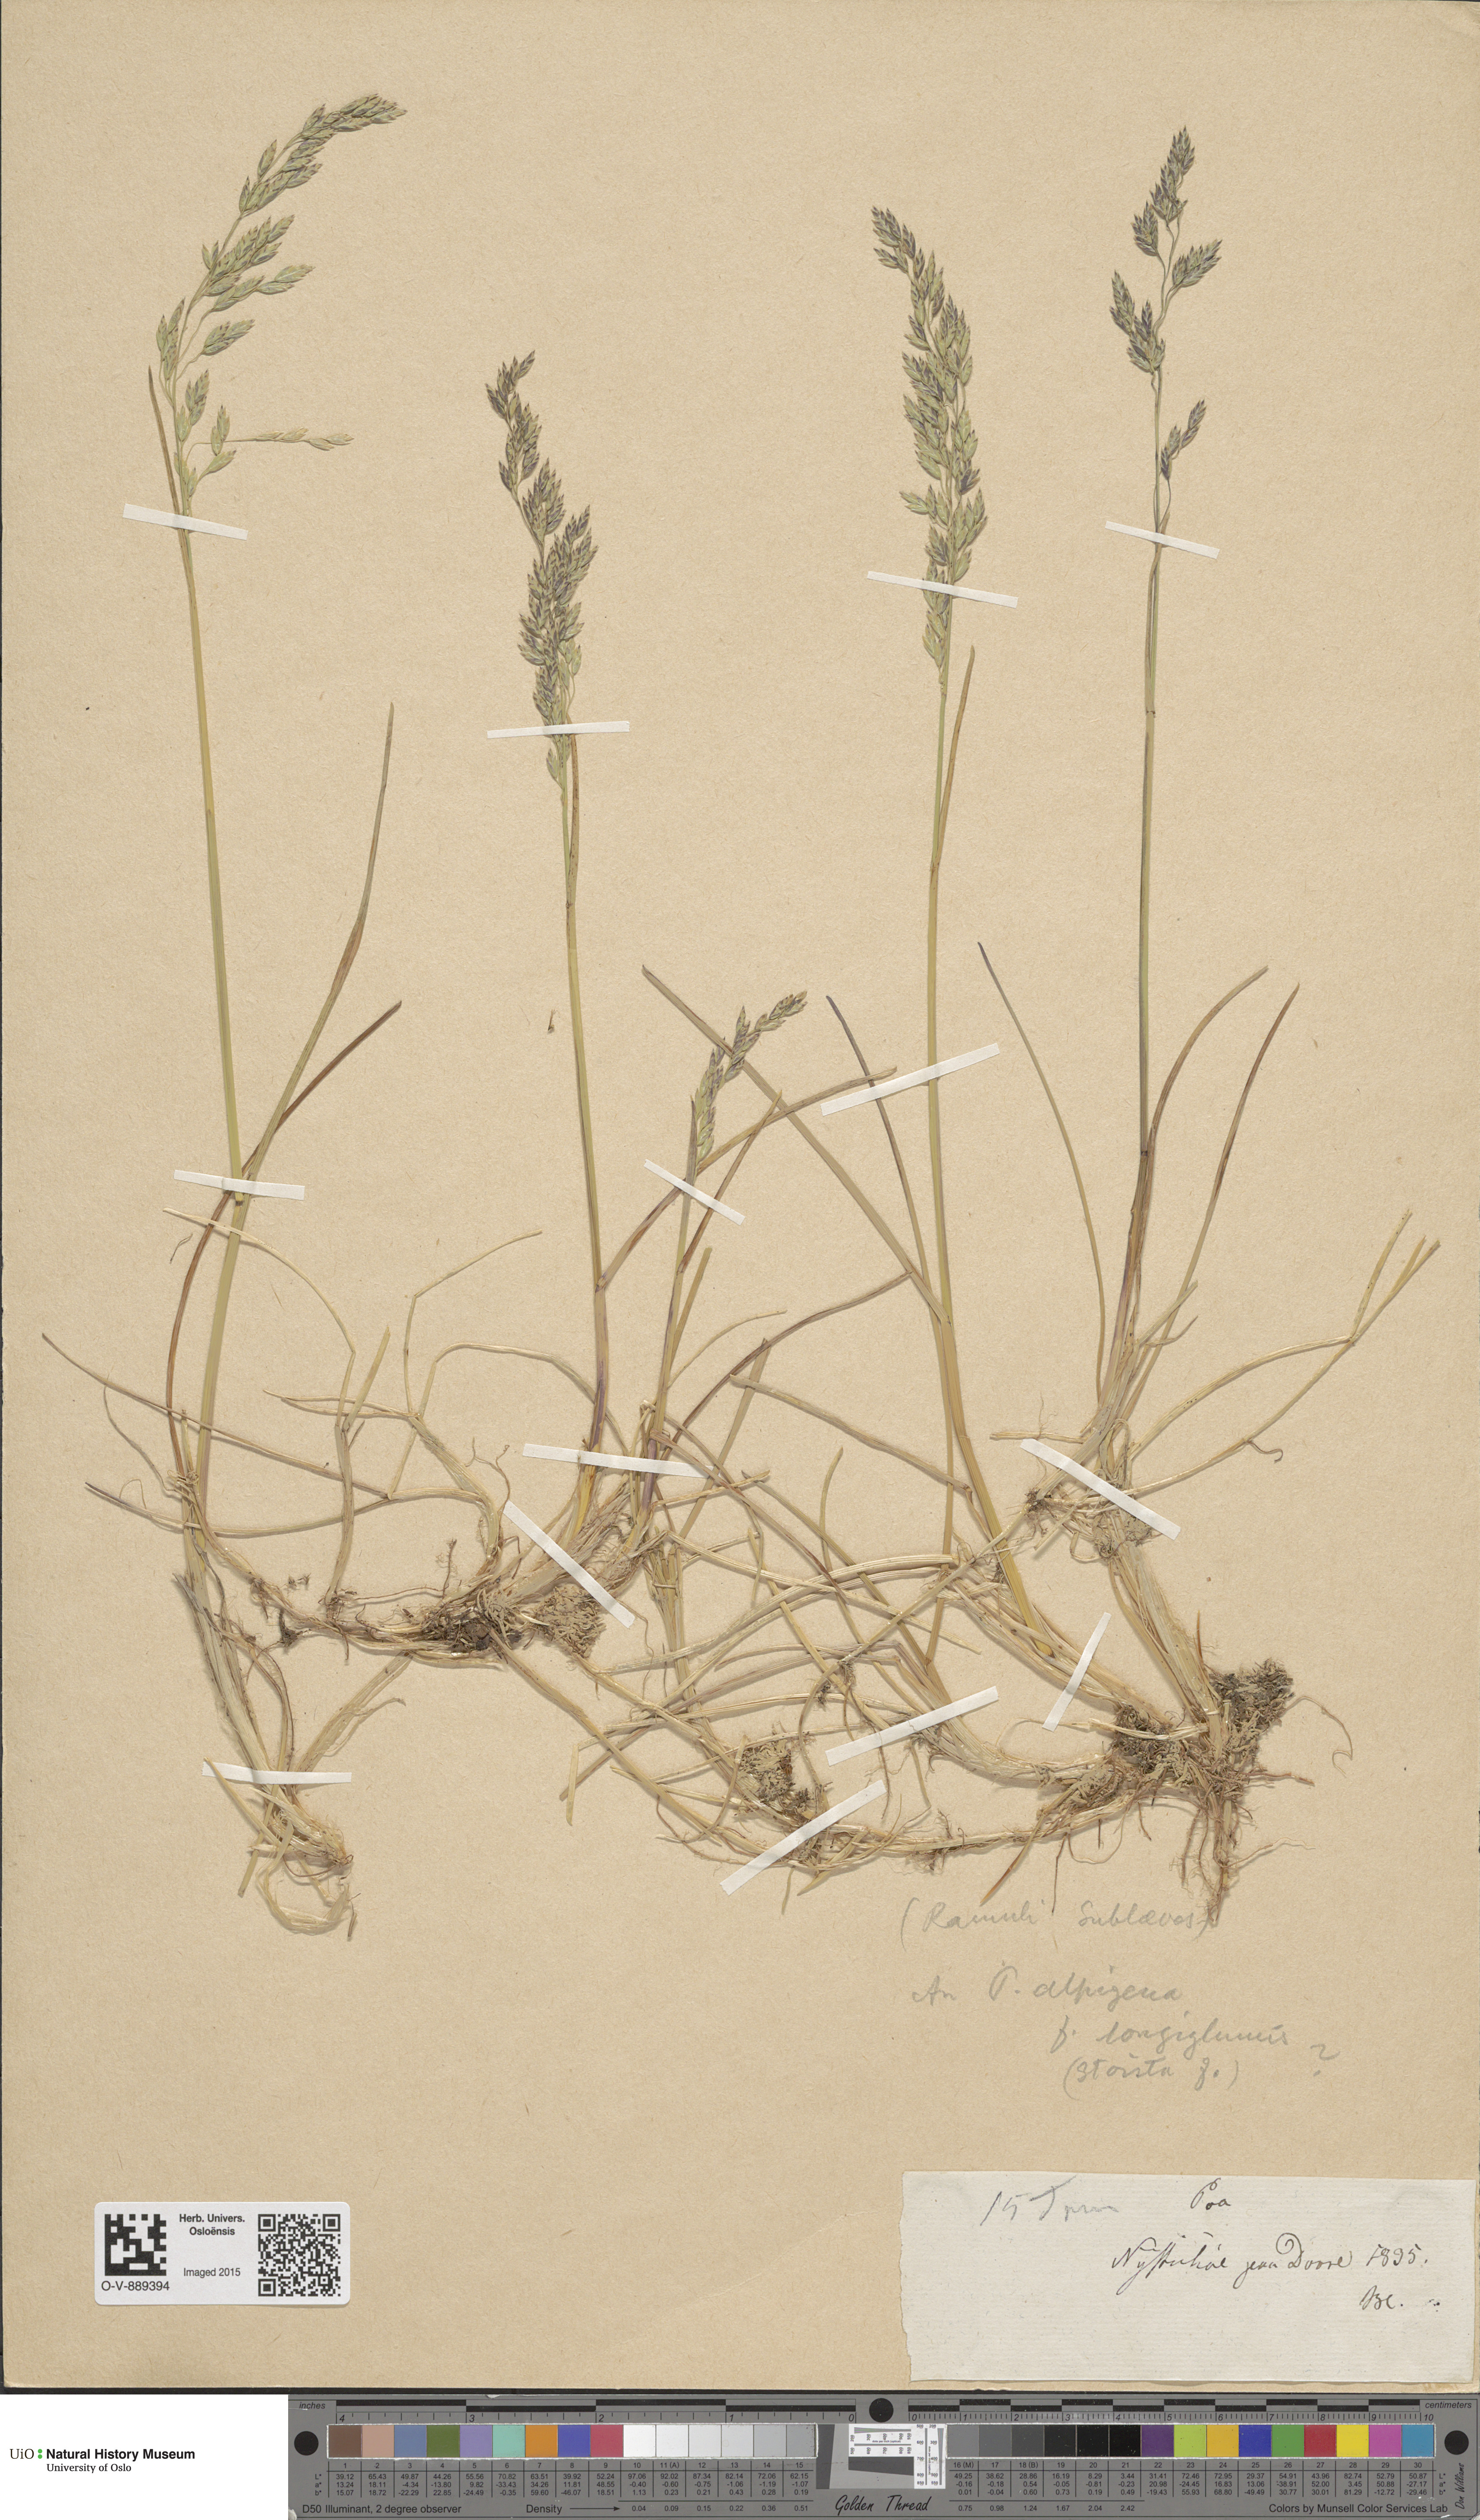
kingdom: Plantae
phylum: Tracheophyta
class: Liliopsida
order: Poales
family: Poaceae
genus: Poa
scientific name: Poa alpigena
